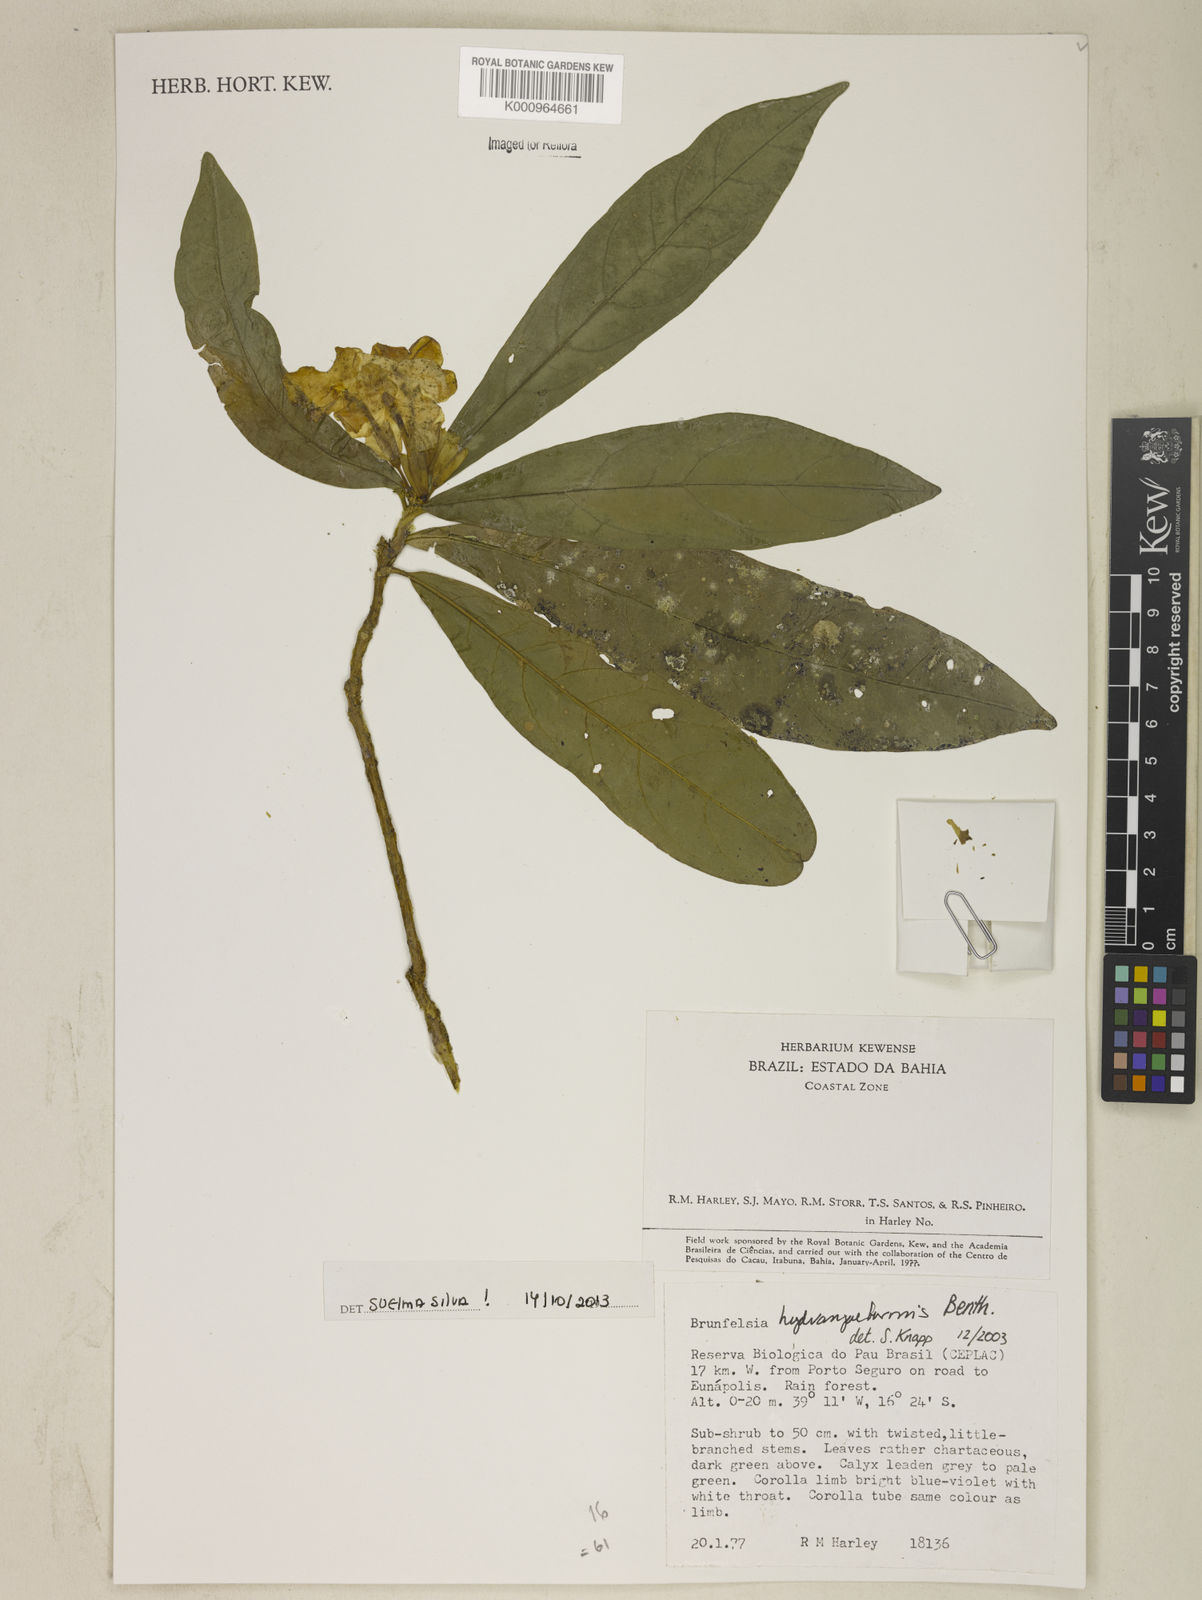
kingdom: Plantae
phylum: Tracheophyta
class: Magnoliopsida
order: Solanales
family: Solanaceae
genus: Brunfelsia
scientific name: Brunfelsia hydrangeiformis
